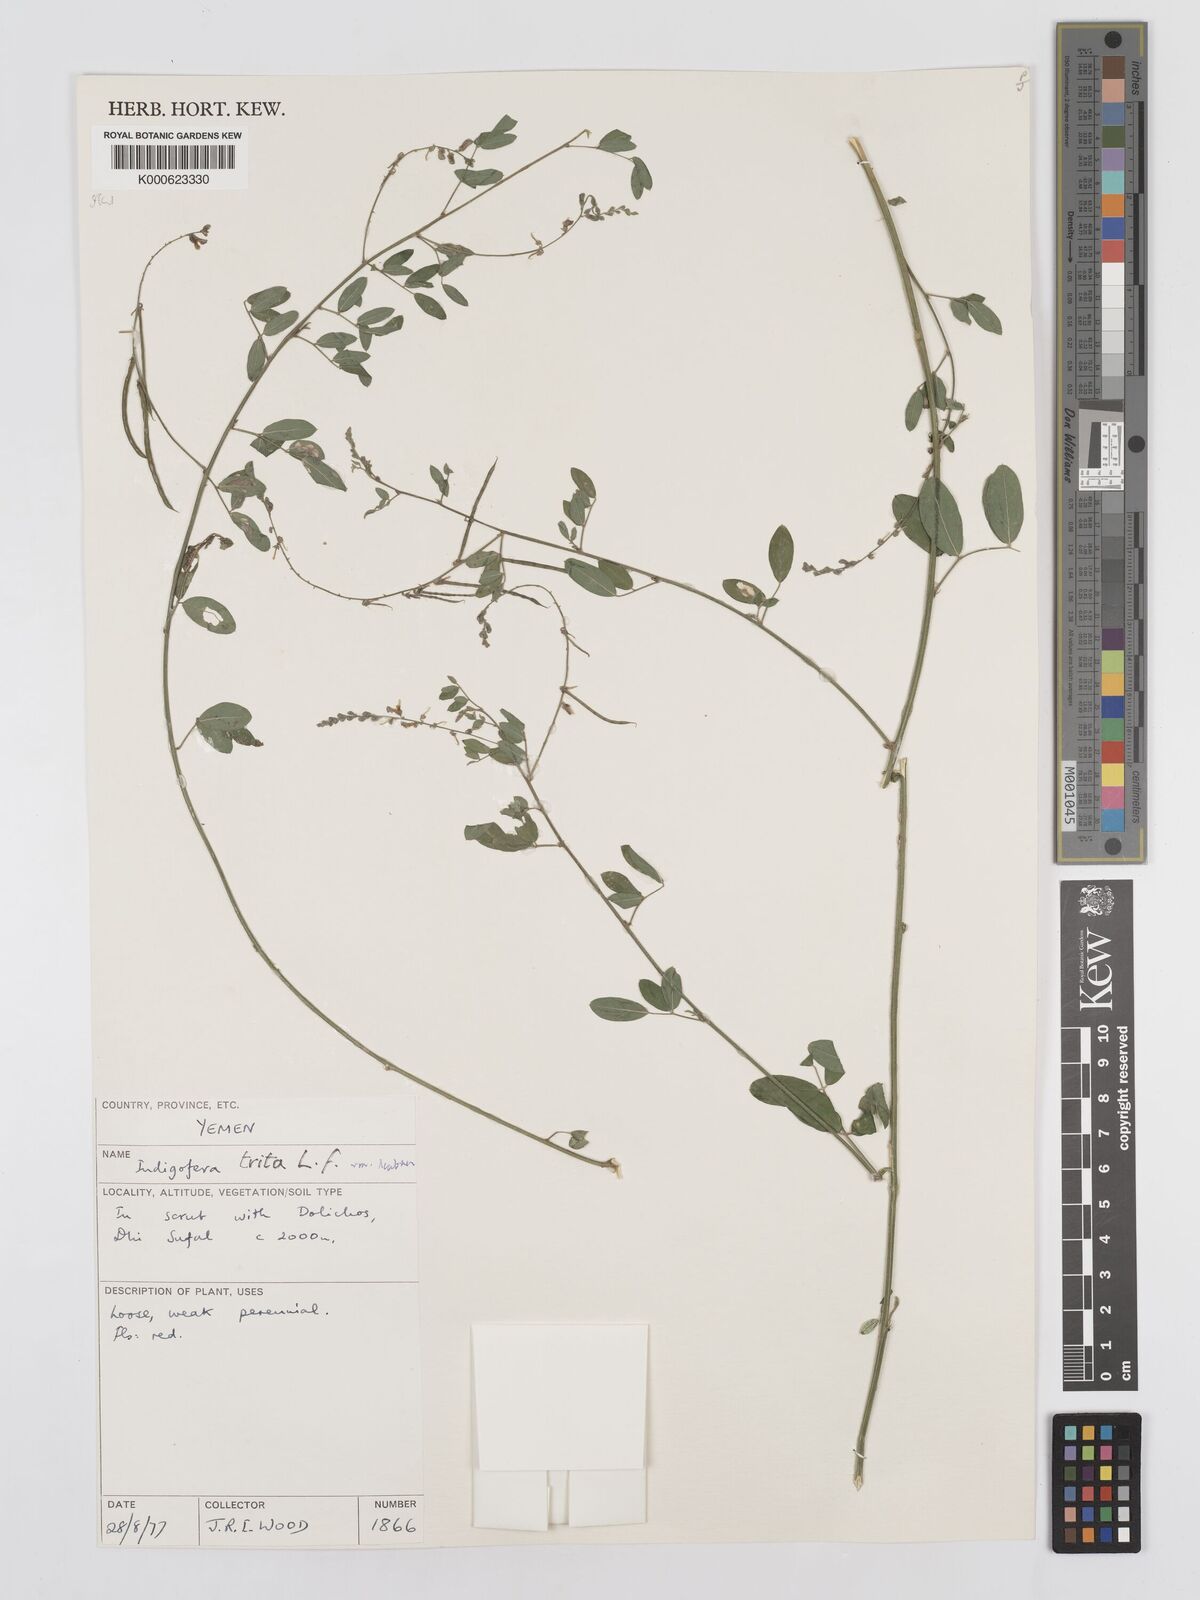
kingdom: Plantae
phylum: Tracheophyta
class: Magnoliopsida
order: Fabales
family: Fabaceae
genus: Indigofera
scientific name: Indigofera subulata
